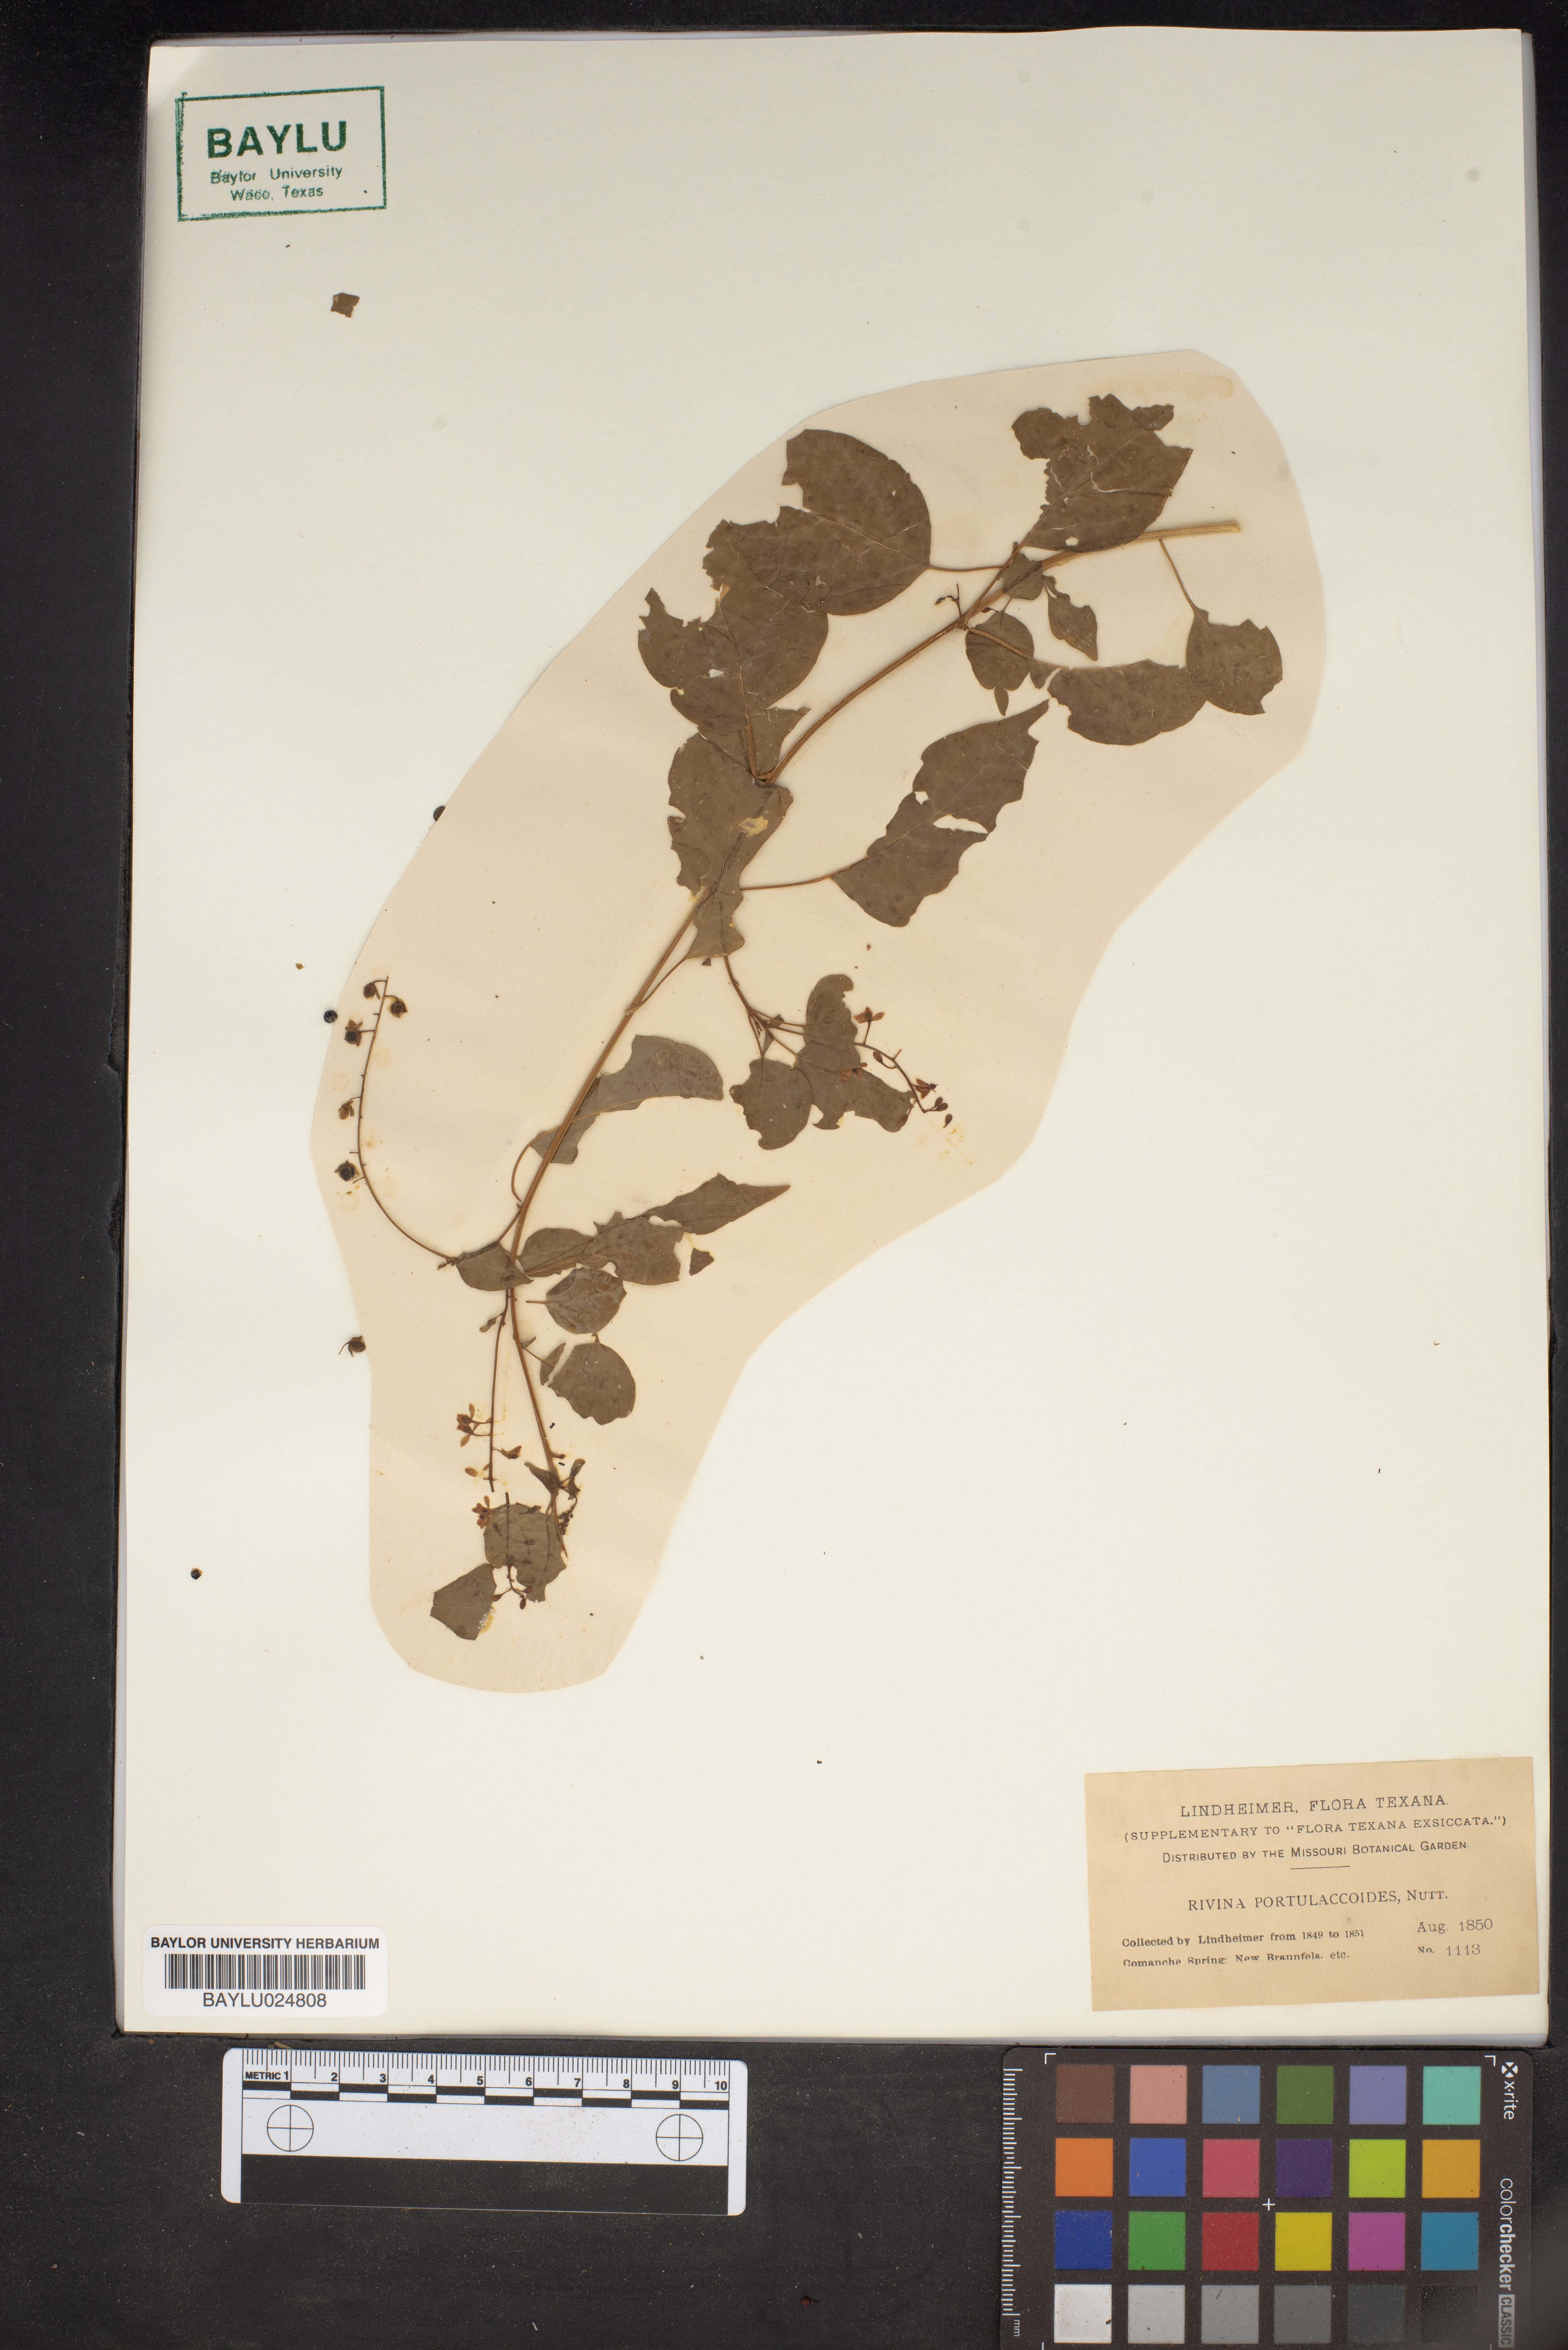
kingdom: Plantae
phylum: Tracheophyta
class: Magnoliopsida
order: Caryophyllales
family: Phytolaccaceae
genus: Rivina
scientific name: Rivina humilis
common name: Rougeplant
